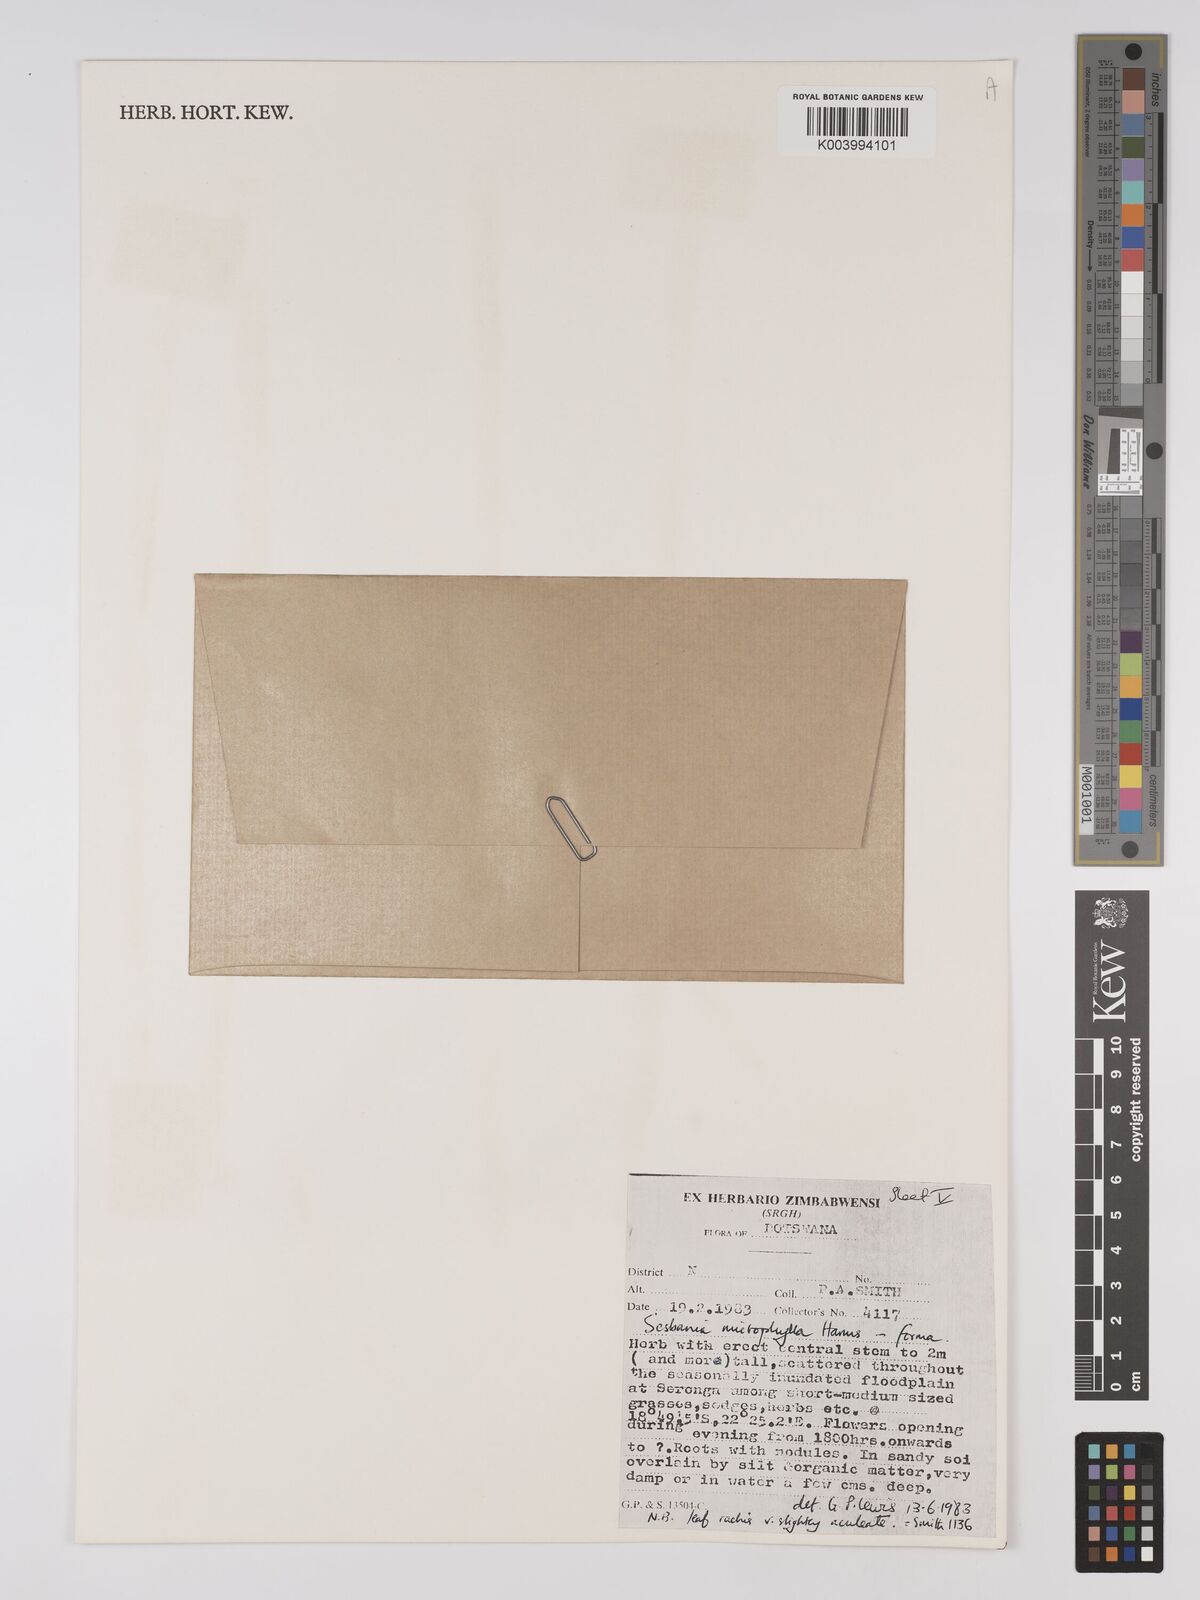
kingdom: Plantae
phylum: Tracheophyta
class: Magnoliopsida
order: Fabales
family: Fabaceae
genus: Sesbania
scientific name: Sesbania microphylla
